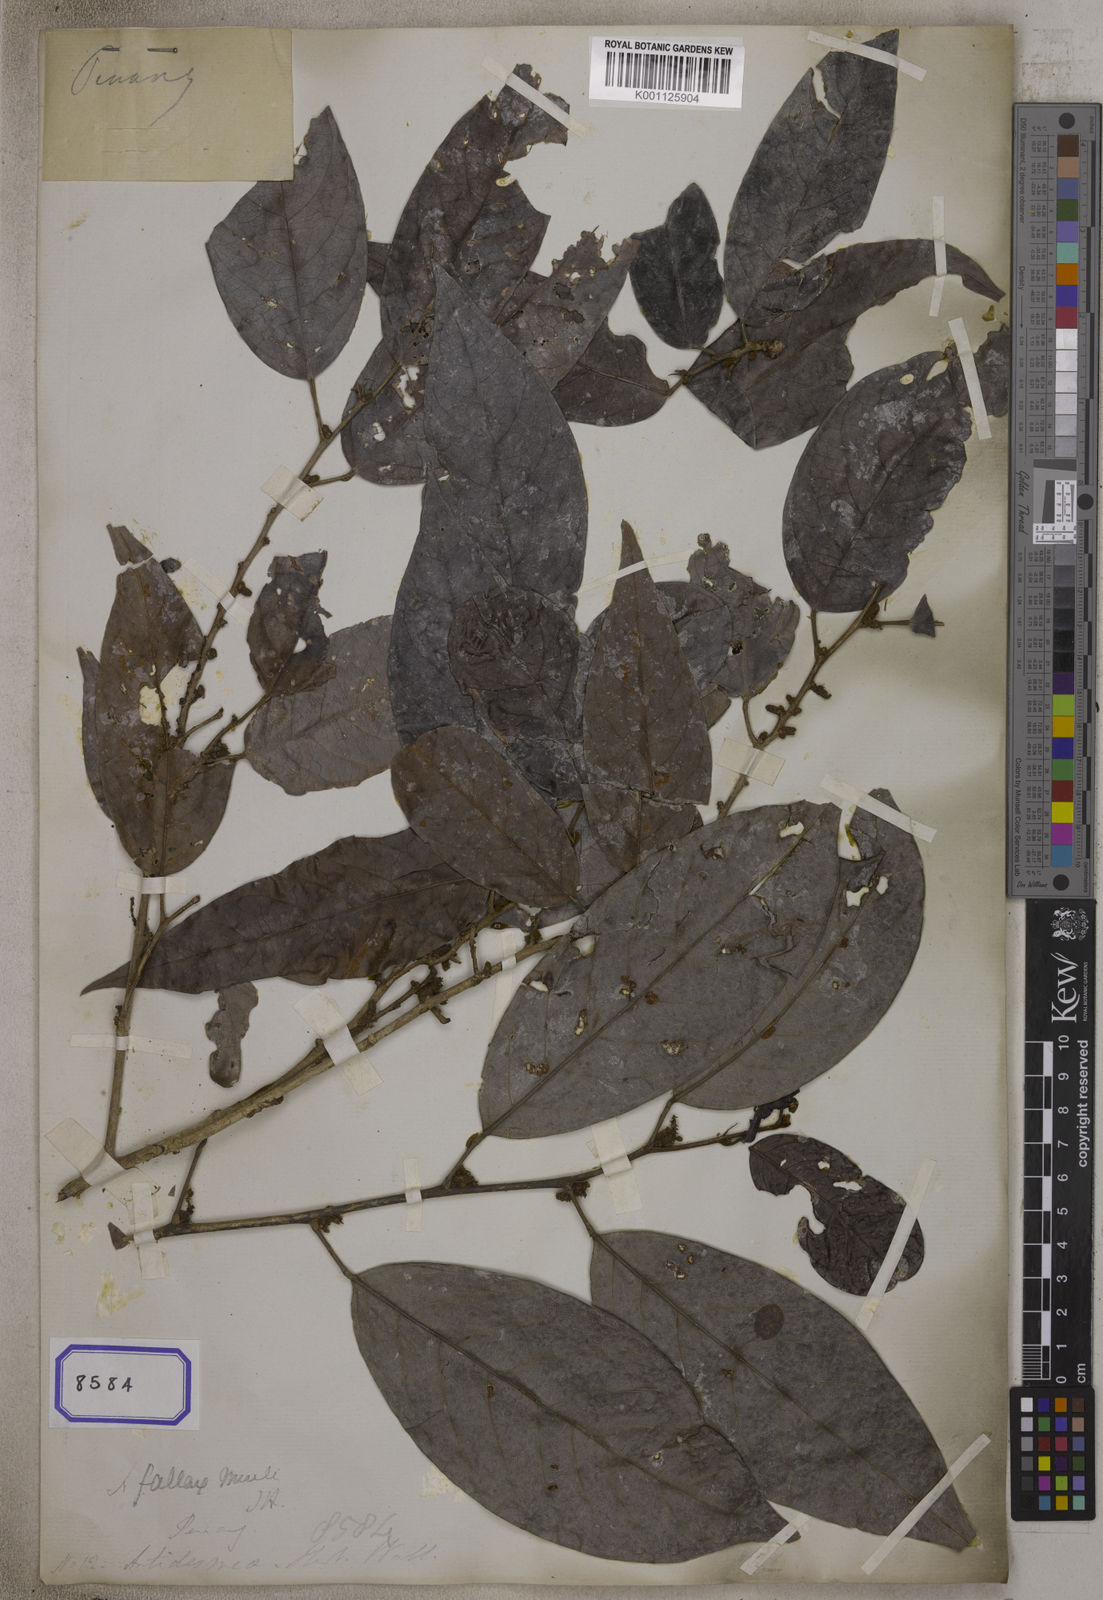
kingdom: Plantae
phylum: Tracheophyta
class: Magnoliopsida
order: Malpighiales
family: Phyllanthaceae
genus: Antidesma
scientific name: Antidesma
